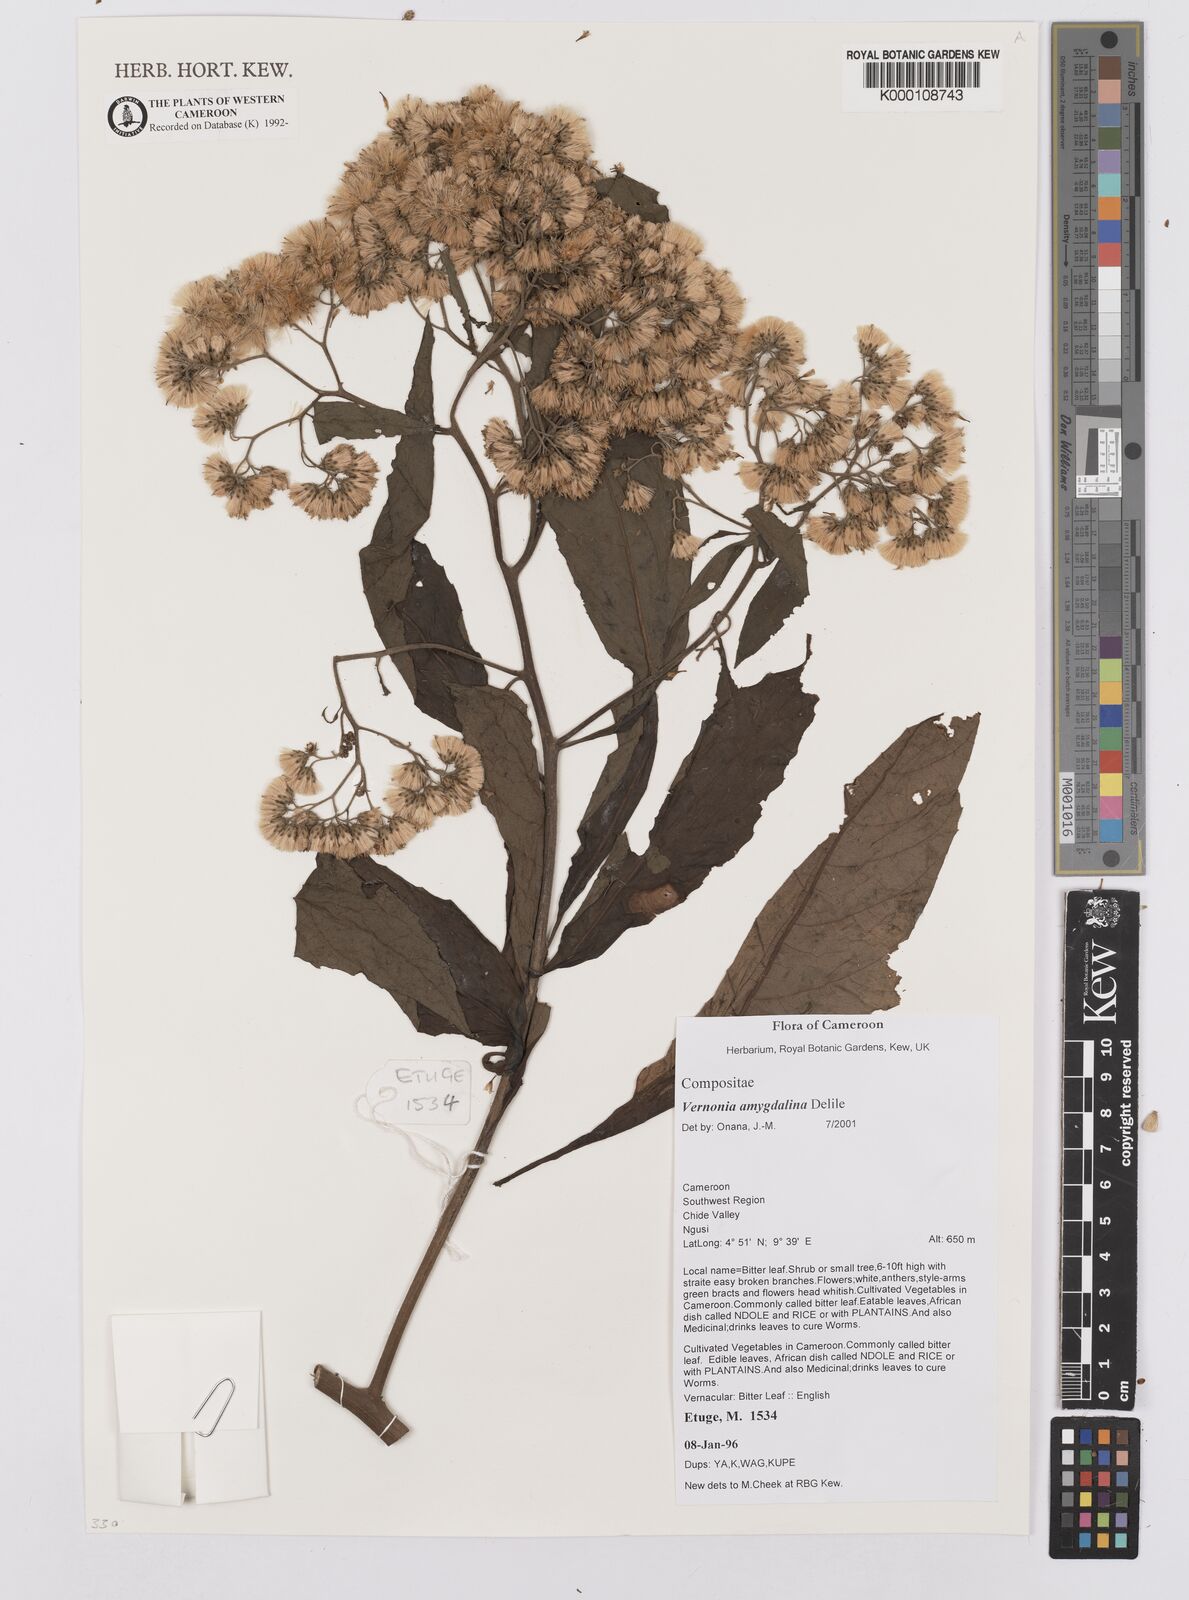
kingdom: Plantae
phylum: Tracheophyta
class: Magnoliopsida
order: Asterales
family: Asteraceae
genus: Gymnanthemum
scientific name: Gymnanthemum amygdalinum
